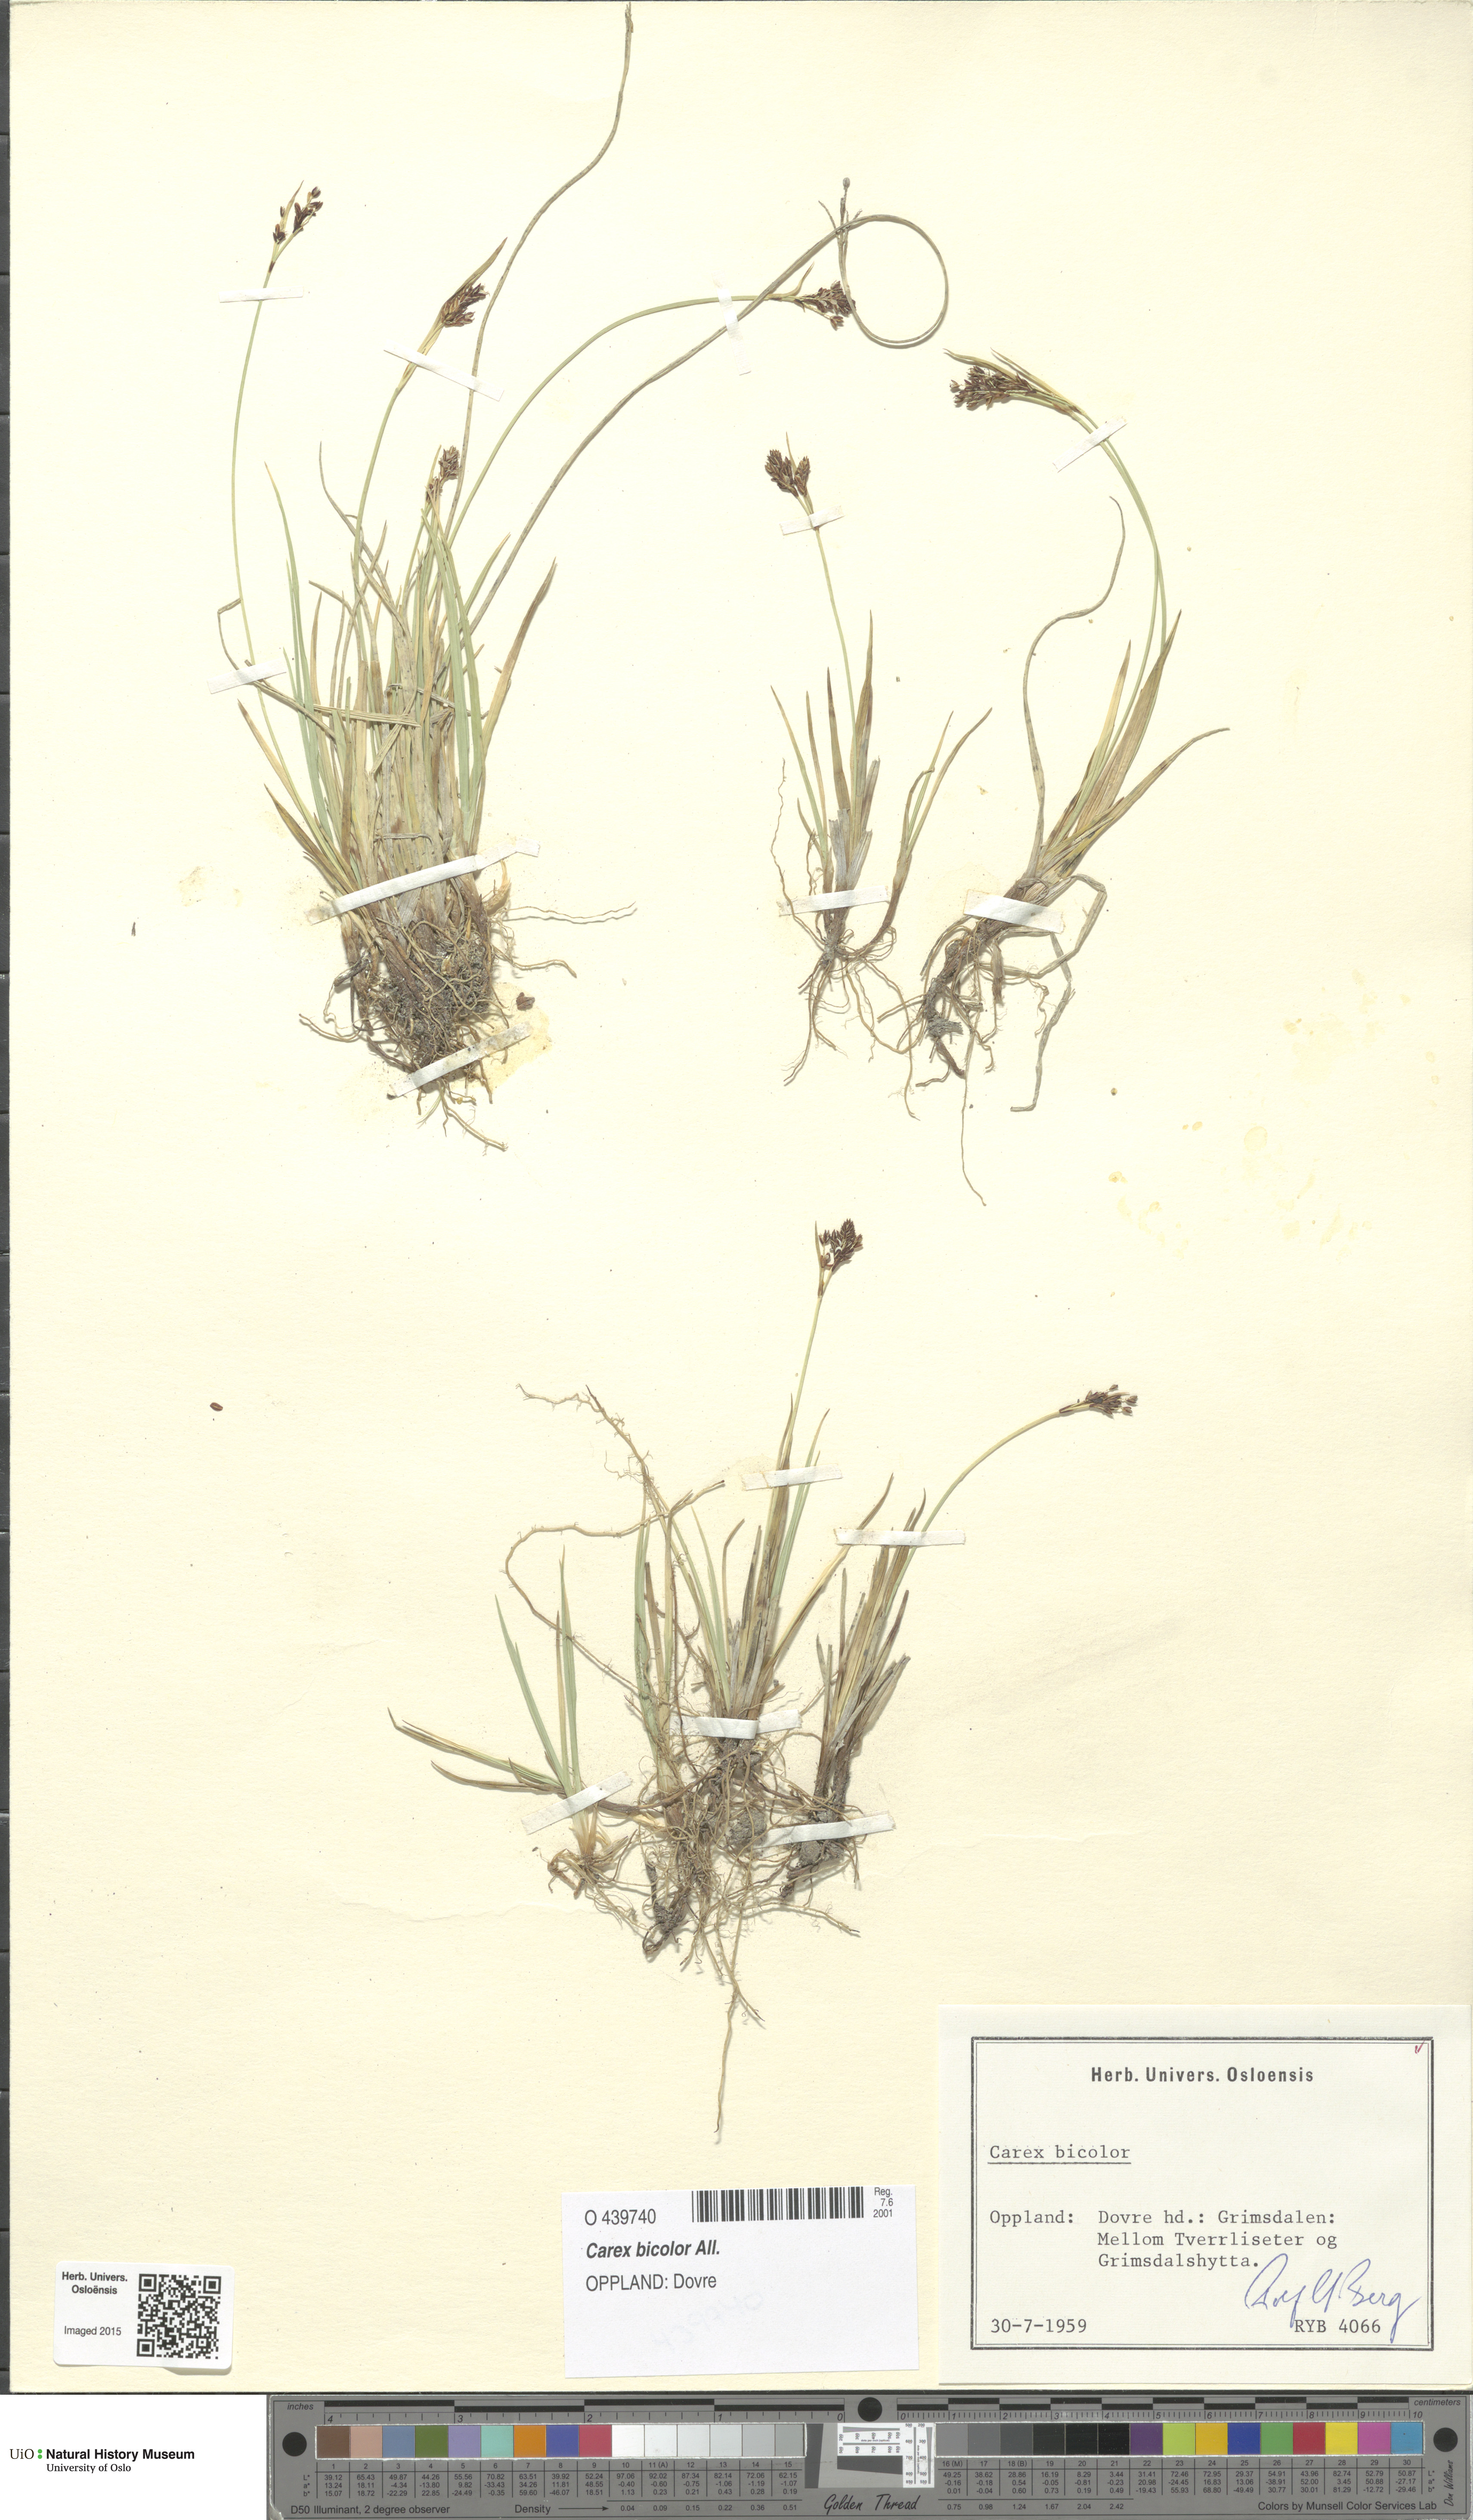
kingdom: Plantae
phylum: Tracheophyta
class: Liliopsida
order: Poales
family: Cyperaceae
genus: Carex
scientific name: Carex bicolor
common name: Bicoloured sedge
